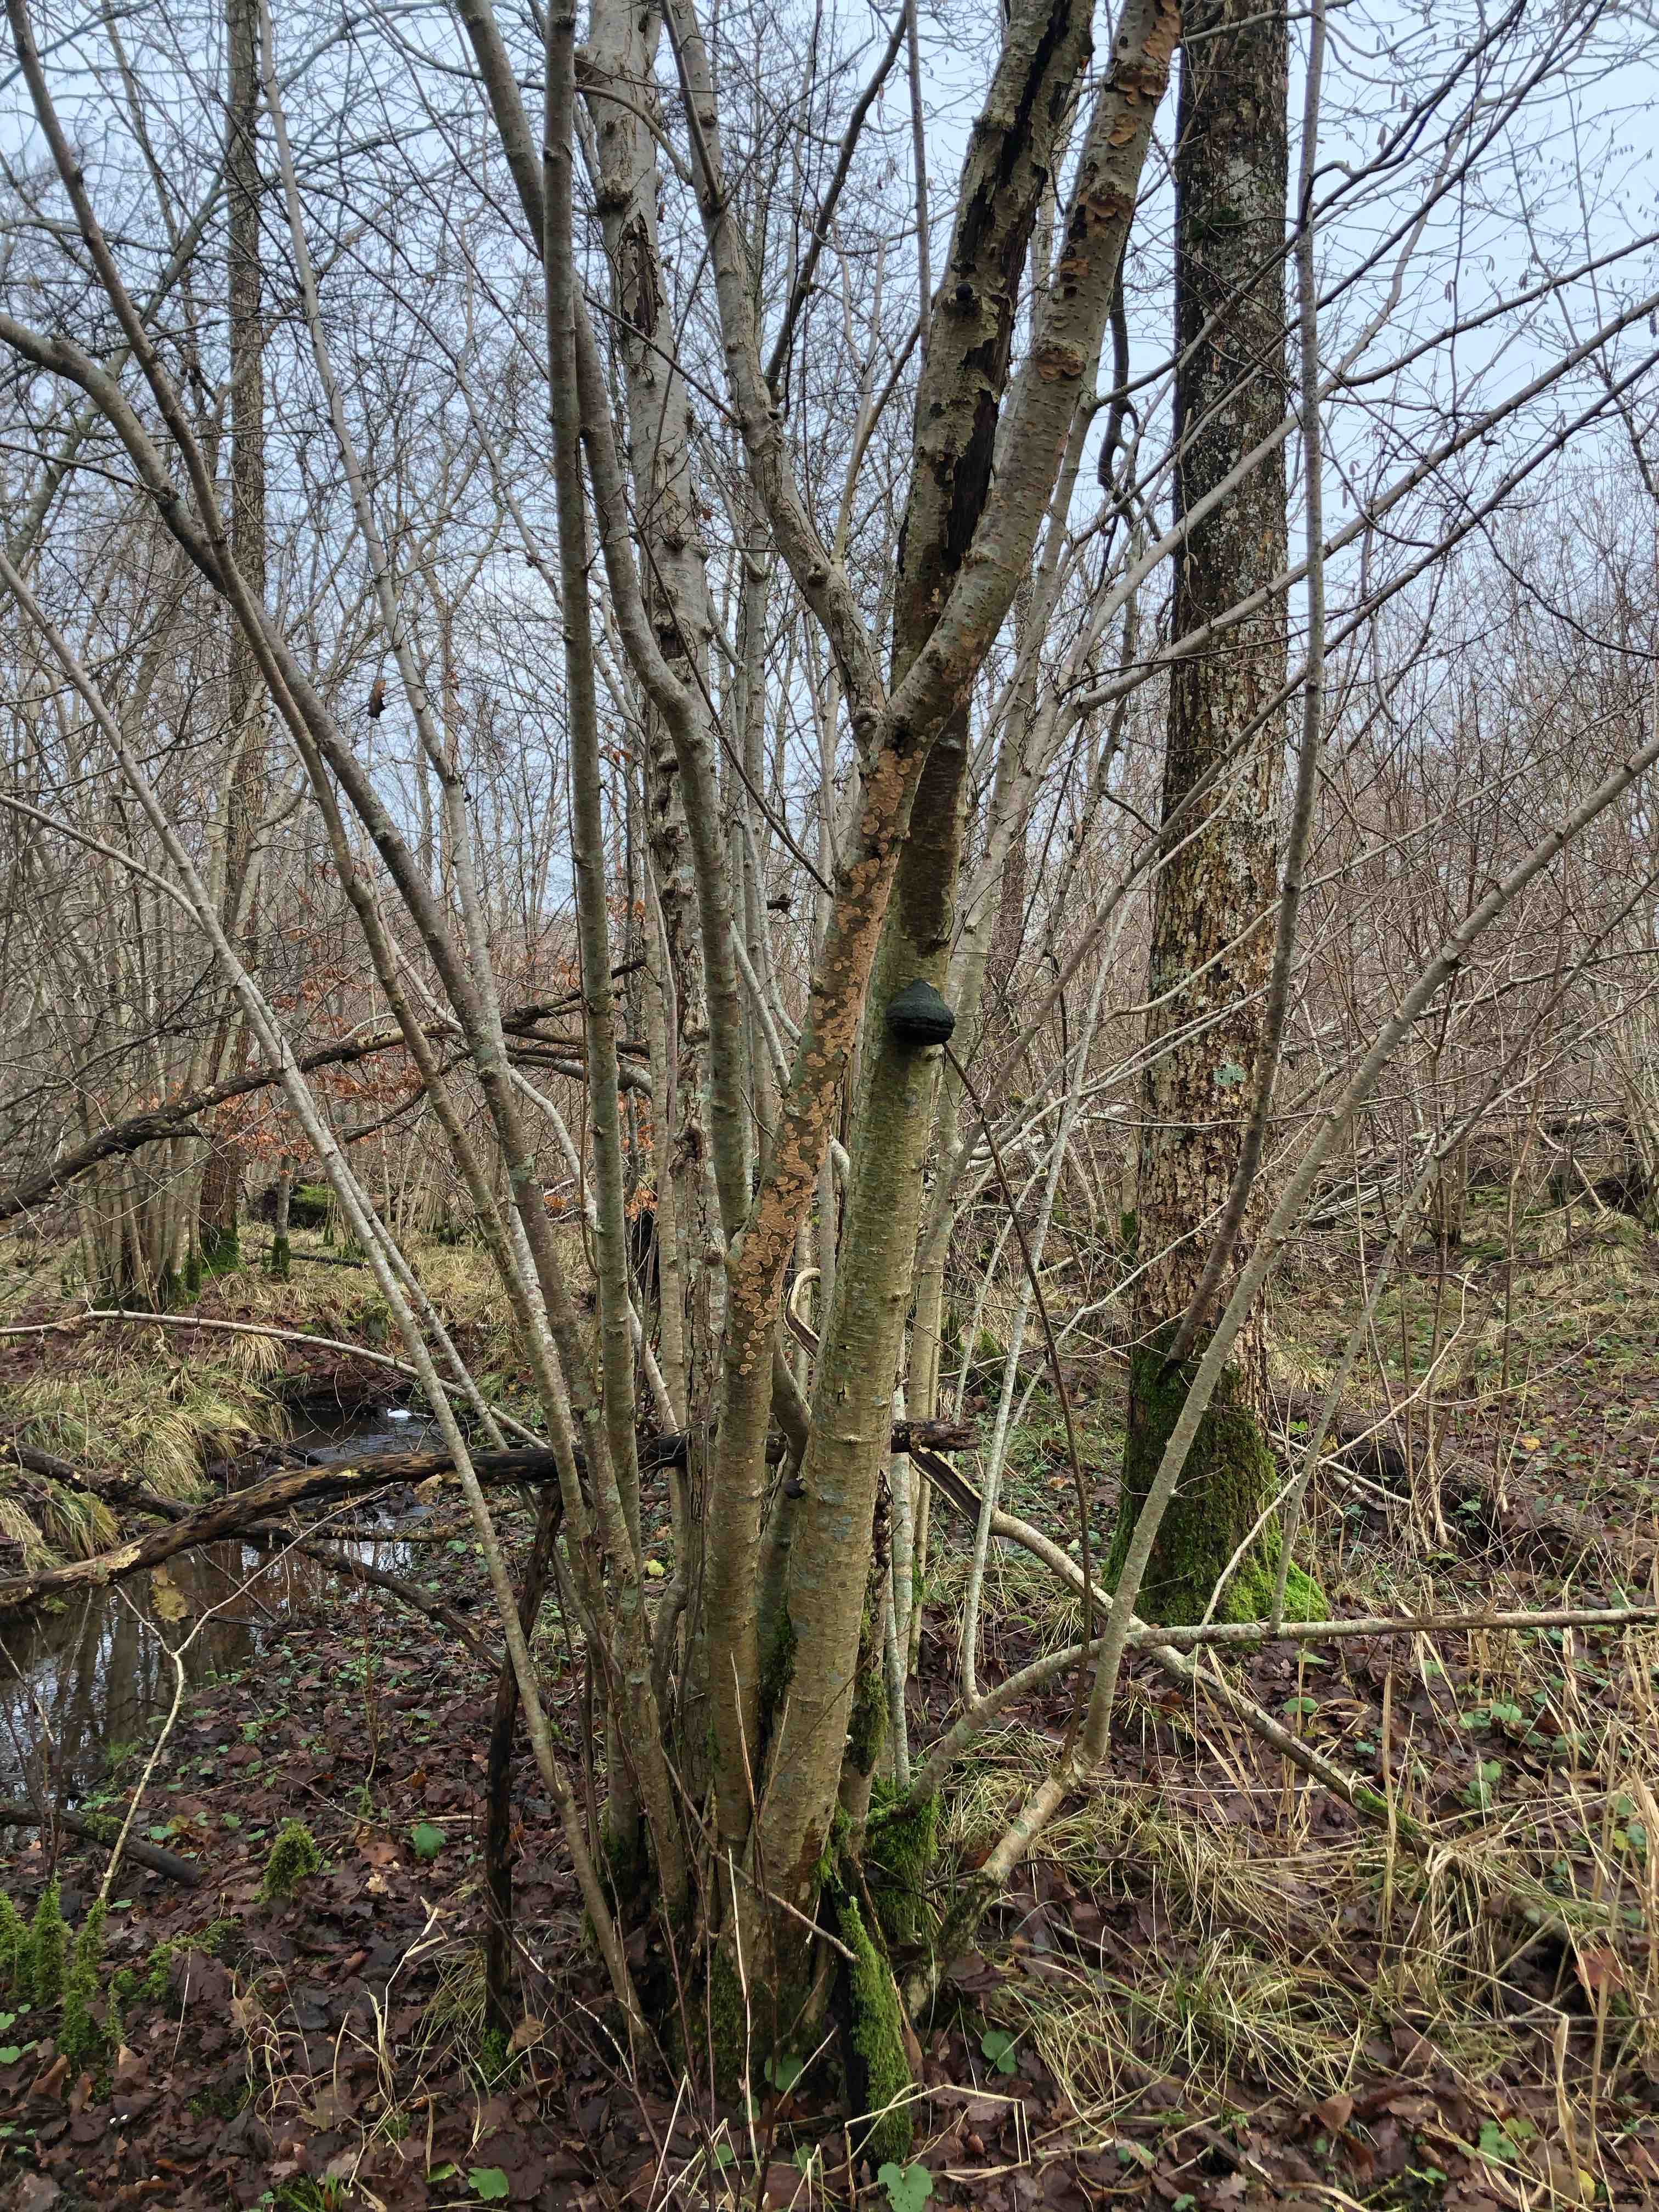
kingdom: Fungi
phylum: Basidiomycota
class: Agaricomycetes
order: Polyporales
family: Polyporaceae
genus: Fomes
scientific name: Fomes fomentarius
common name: tøndersvamp
